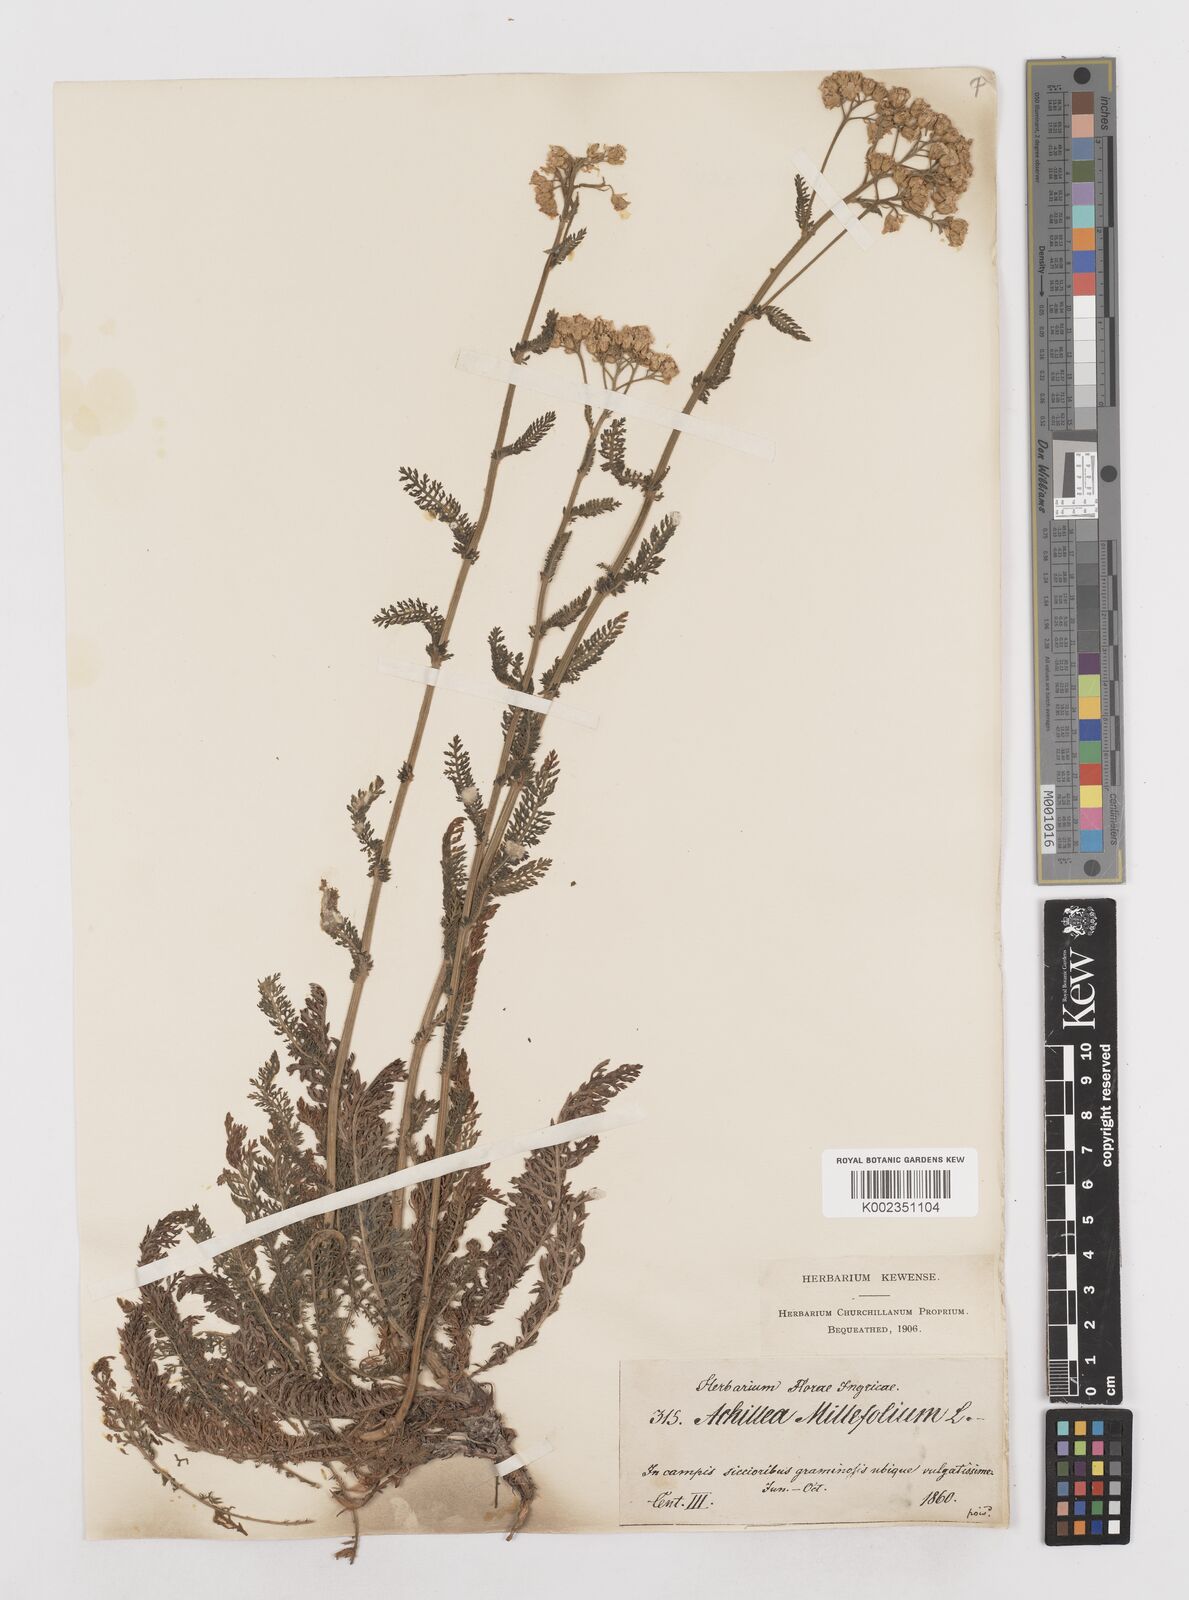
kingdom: Plantae
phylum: Tracheophyta
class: Magnoliopsida
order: Asterales
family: Asteraceae
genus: Achillea
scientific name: Achillea millefolium
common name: Yarrow
